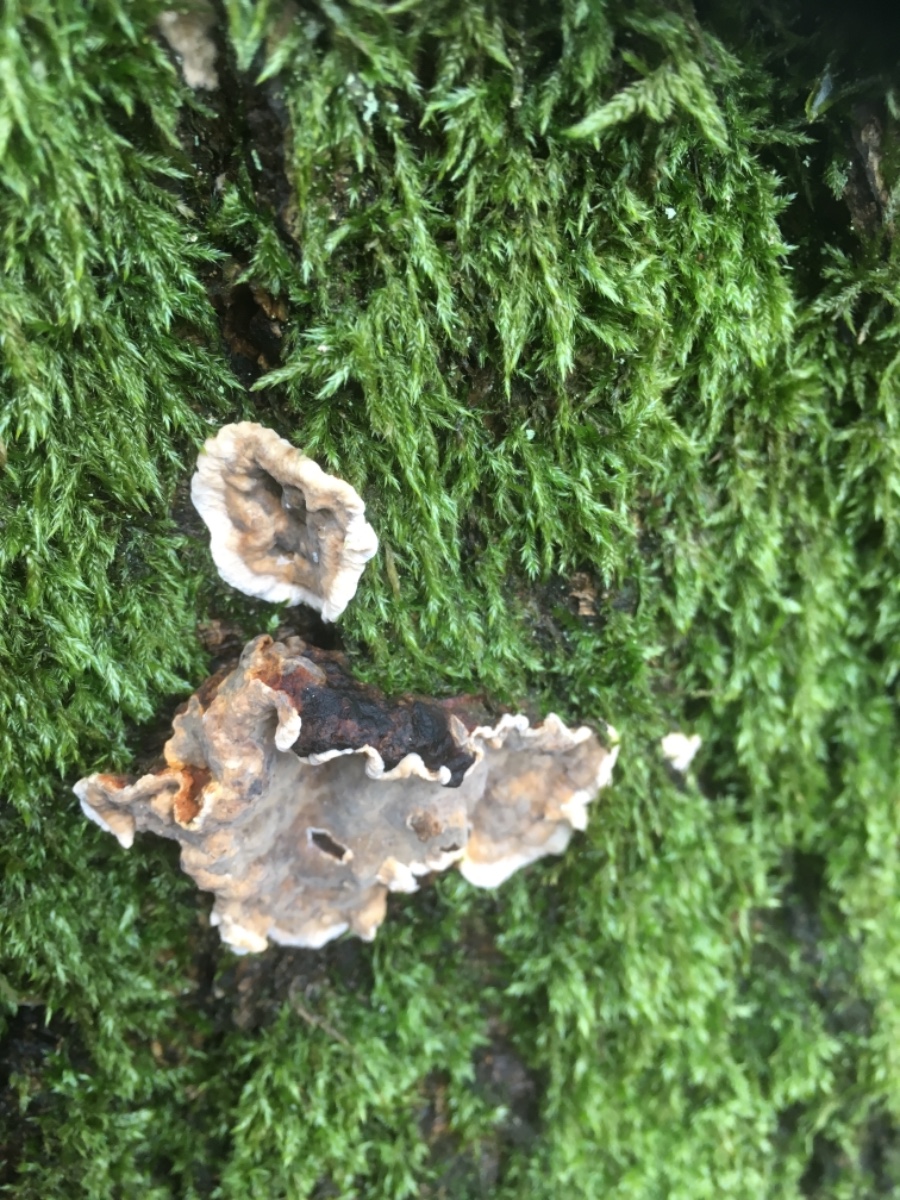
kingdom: Fungi
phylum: Basidiomycota
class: Agaricomycetes
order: Russulales
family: Stereaceae
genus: Stereum
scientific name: Stereum rugosum
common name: rynket lædersvamp
